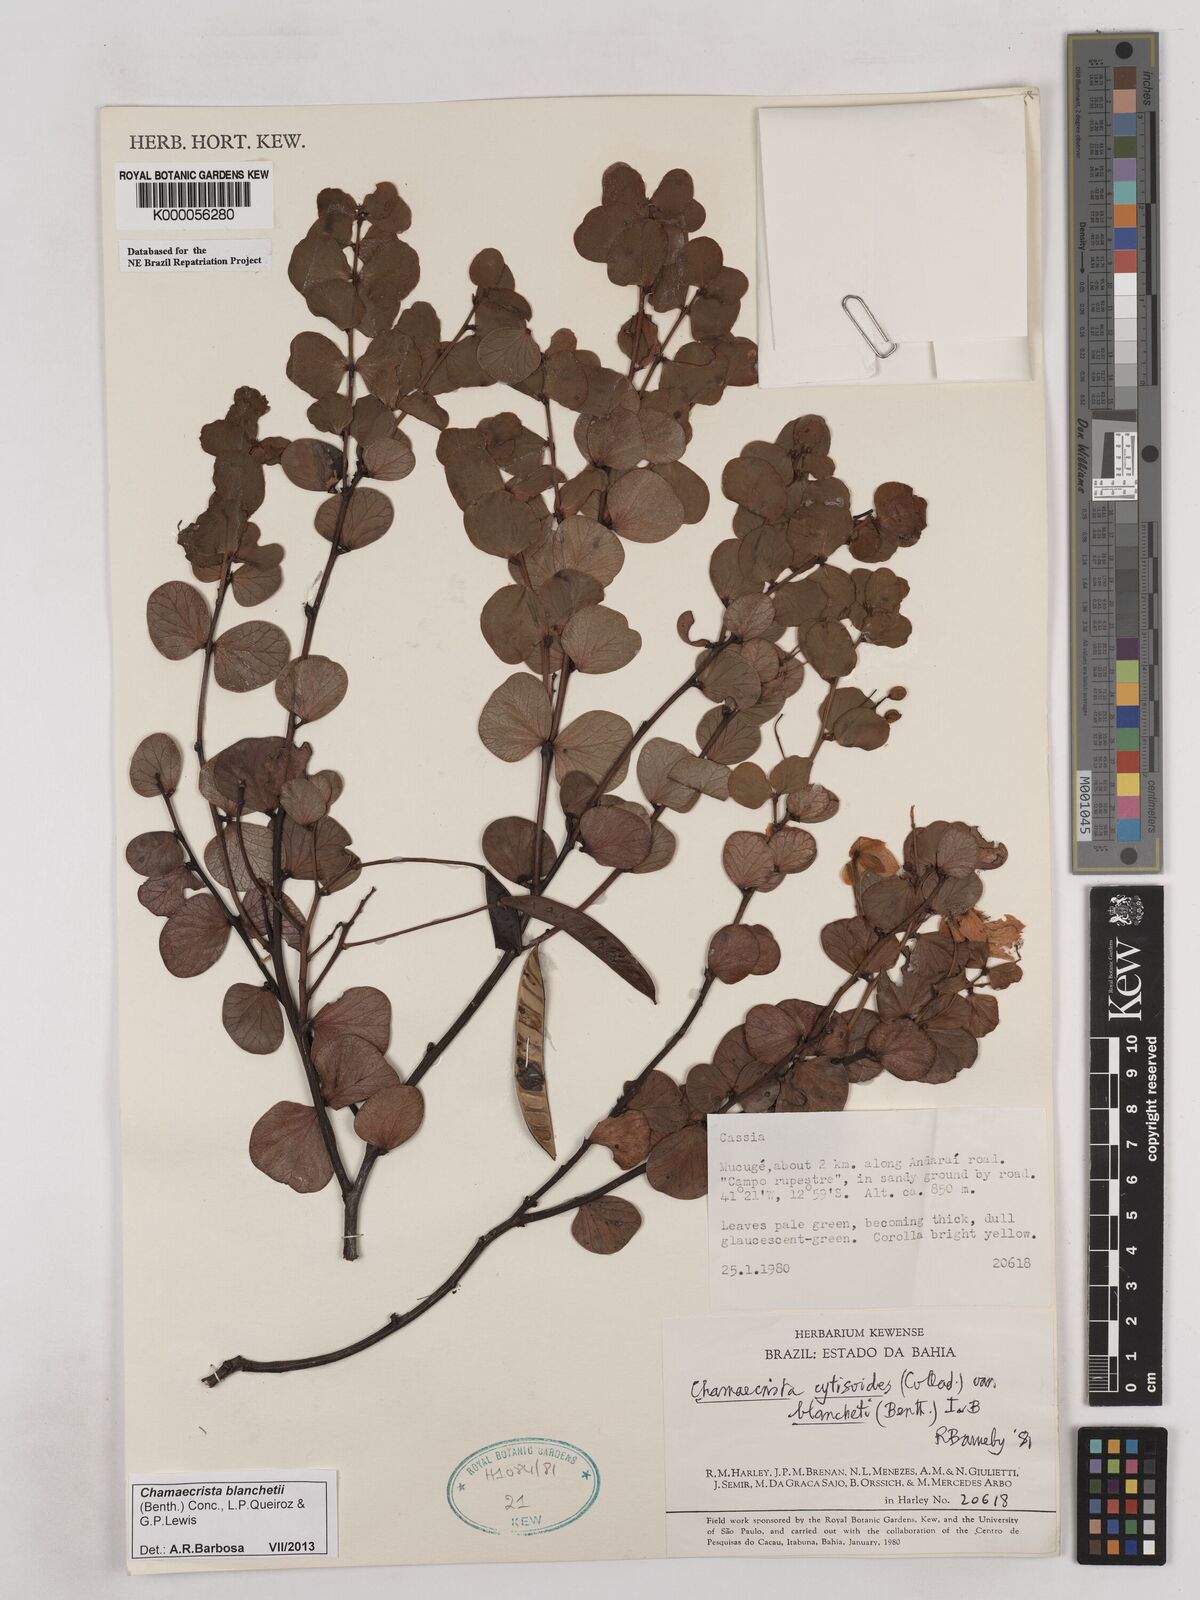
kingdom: Plantae
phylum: Tracheophyta
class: Magnoliopsida
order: Fabales
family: Fabaceae
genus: Chamaecrista
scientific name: Chamaecrista cytisoides
